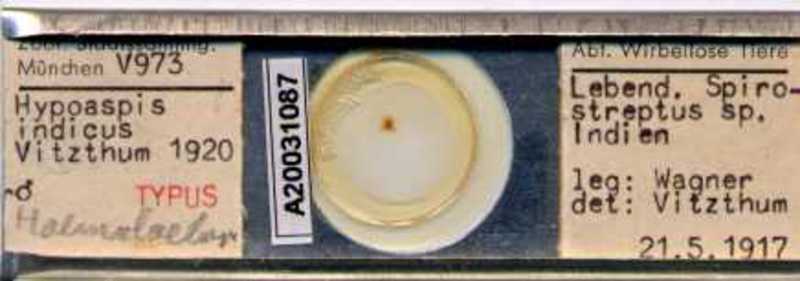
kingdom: Animalia
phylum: Arthropoda
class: Arachnida
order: Mesostigmata
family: Laelapidae
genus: Androlaelaps
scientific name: Androlaelaps
